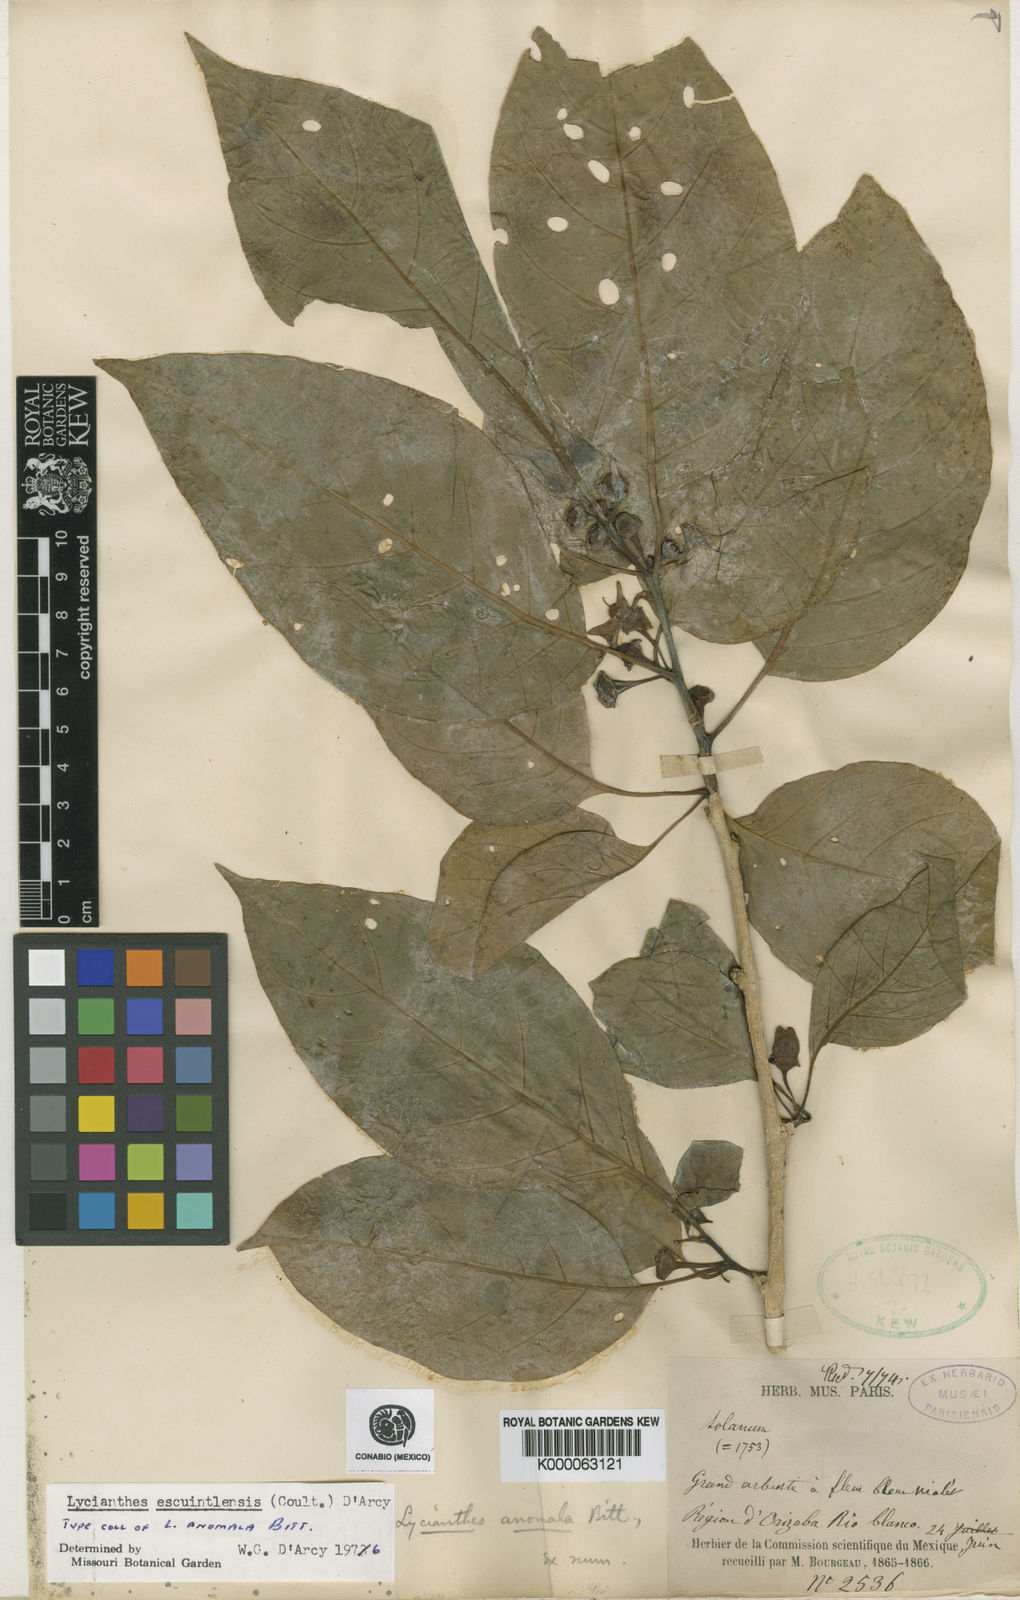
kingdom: Plantae
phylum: Tracheophyta
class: Magnoliopsida
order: Solanales
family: Solanaceae
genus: Lycianthes
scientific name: Lycianthes heteroclita
